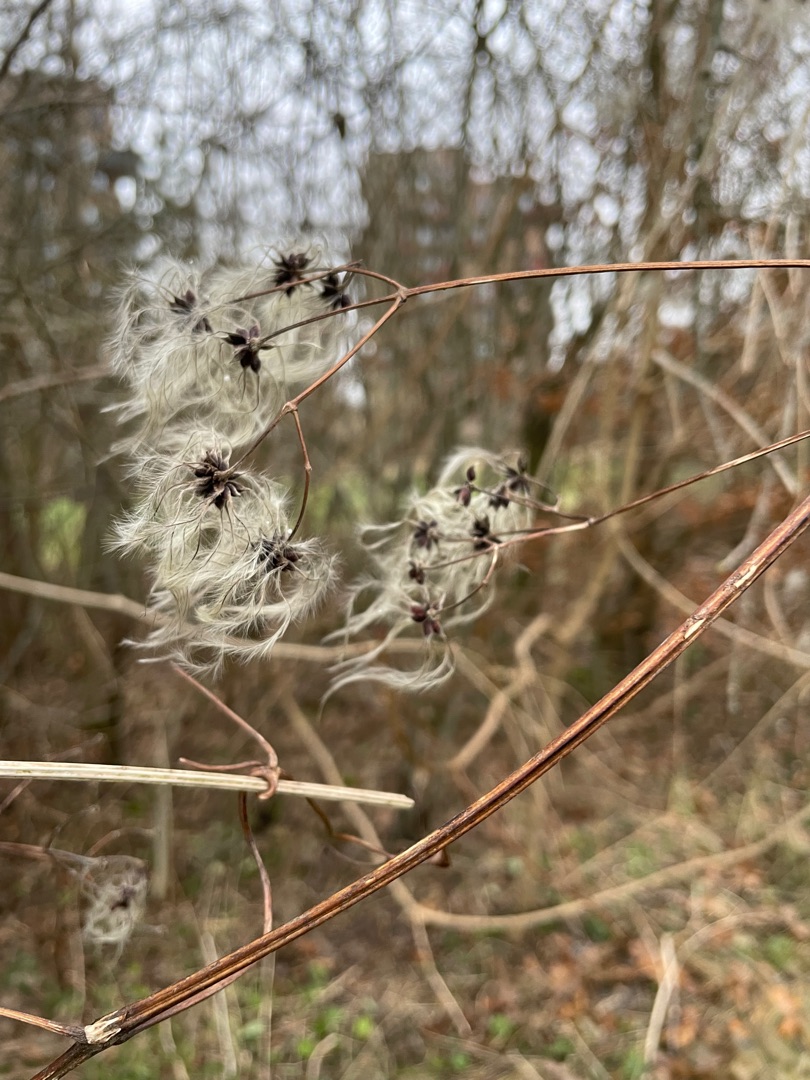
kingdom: Plantae
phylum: Tracheophyta
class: Magnoliopsida
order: Ranunculales
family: Ranunculaceae
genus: Clematis
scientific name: Clematis vitalba
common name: Skovranke
